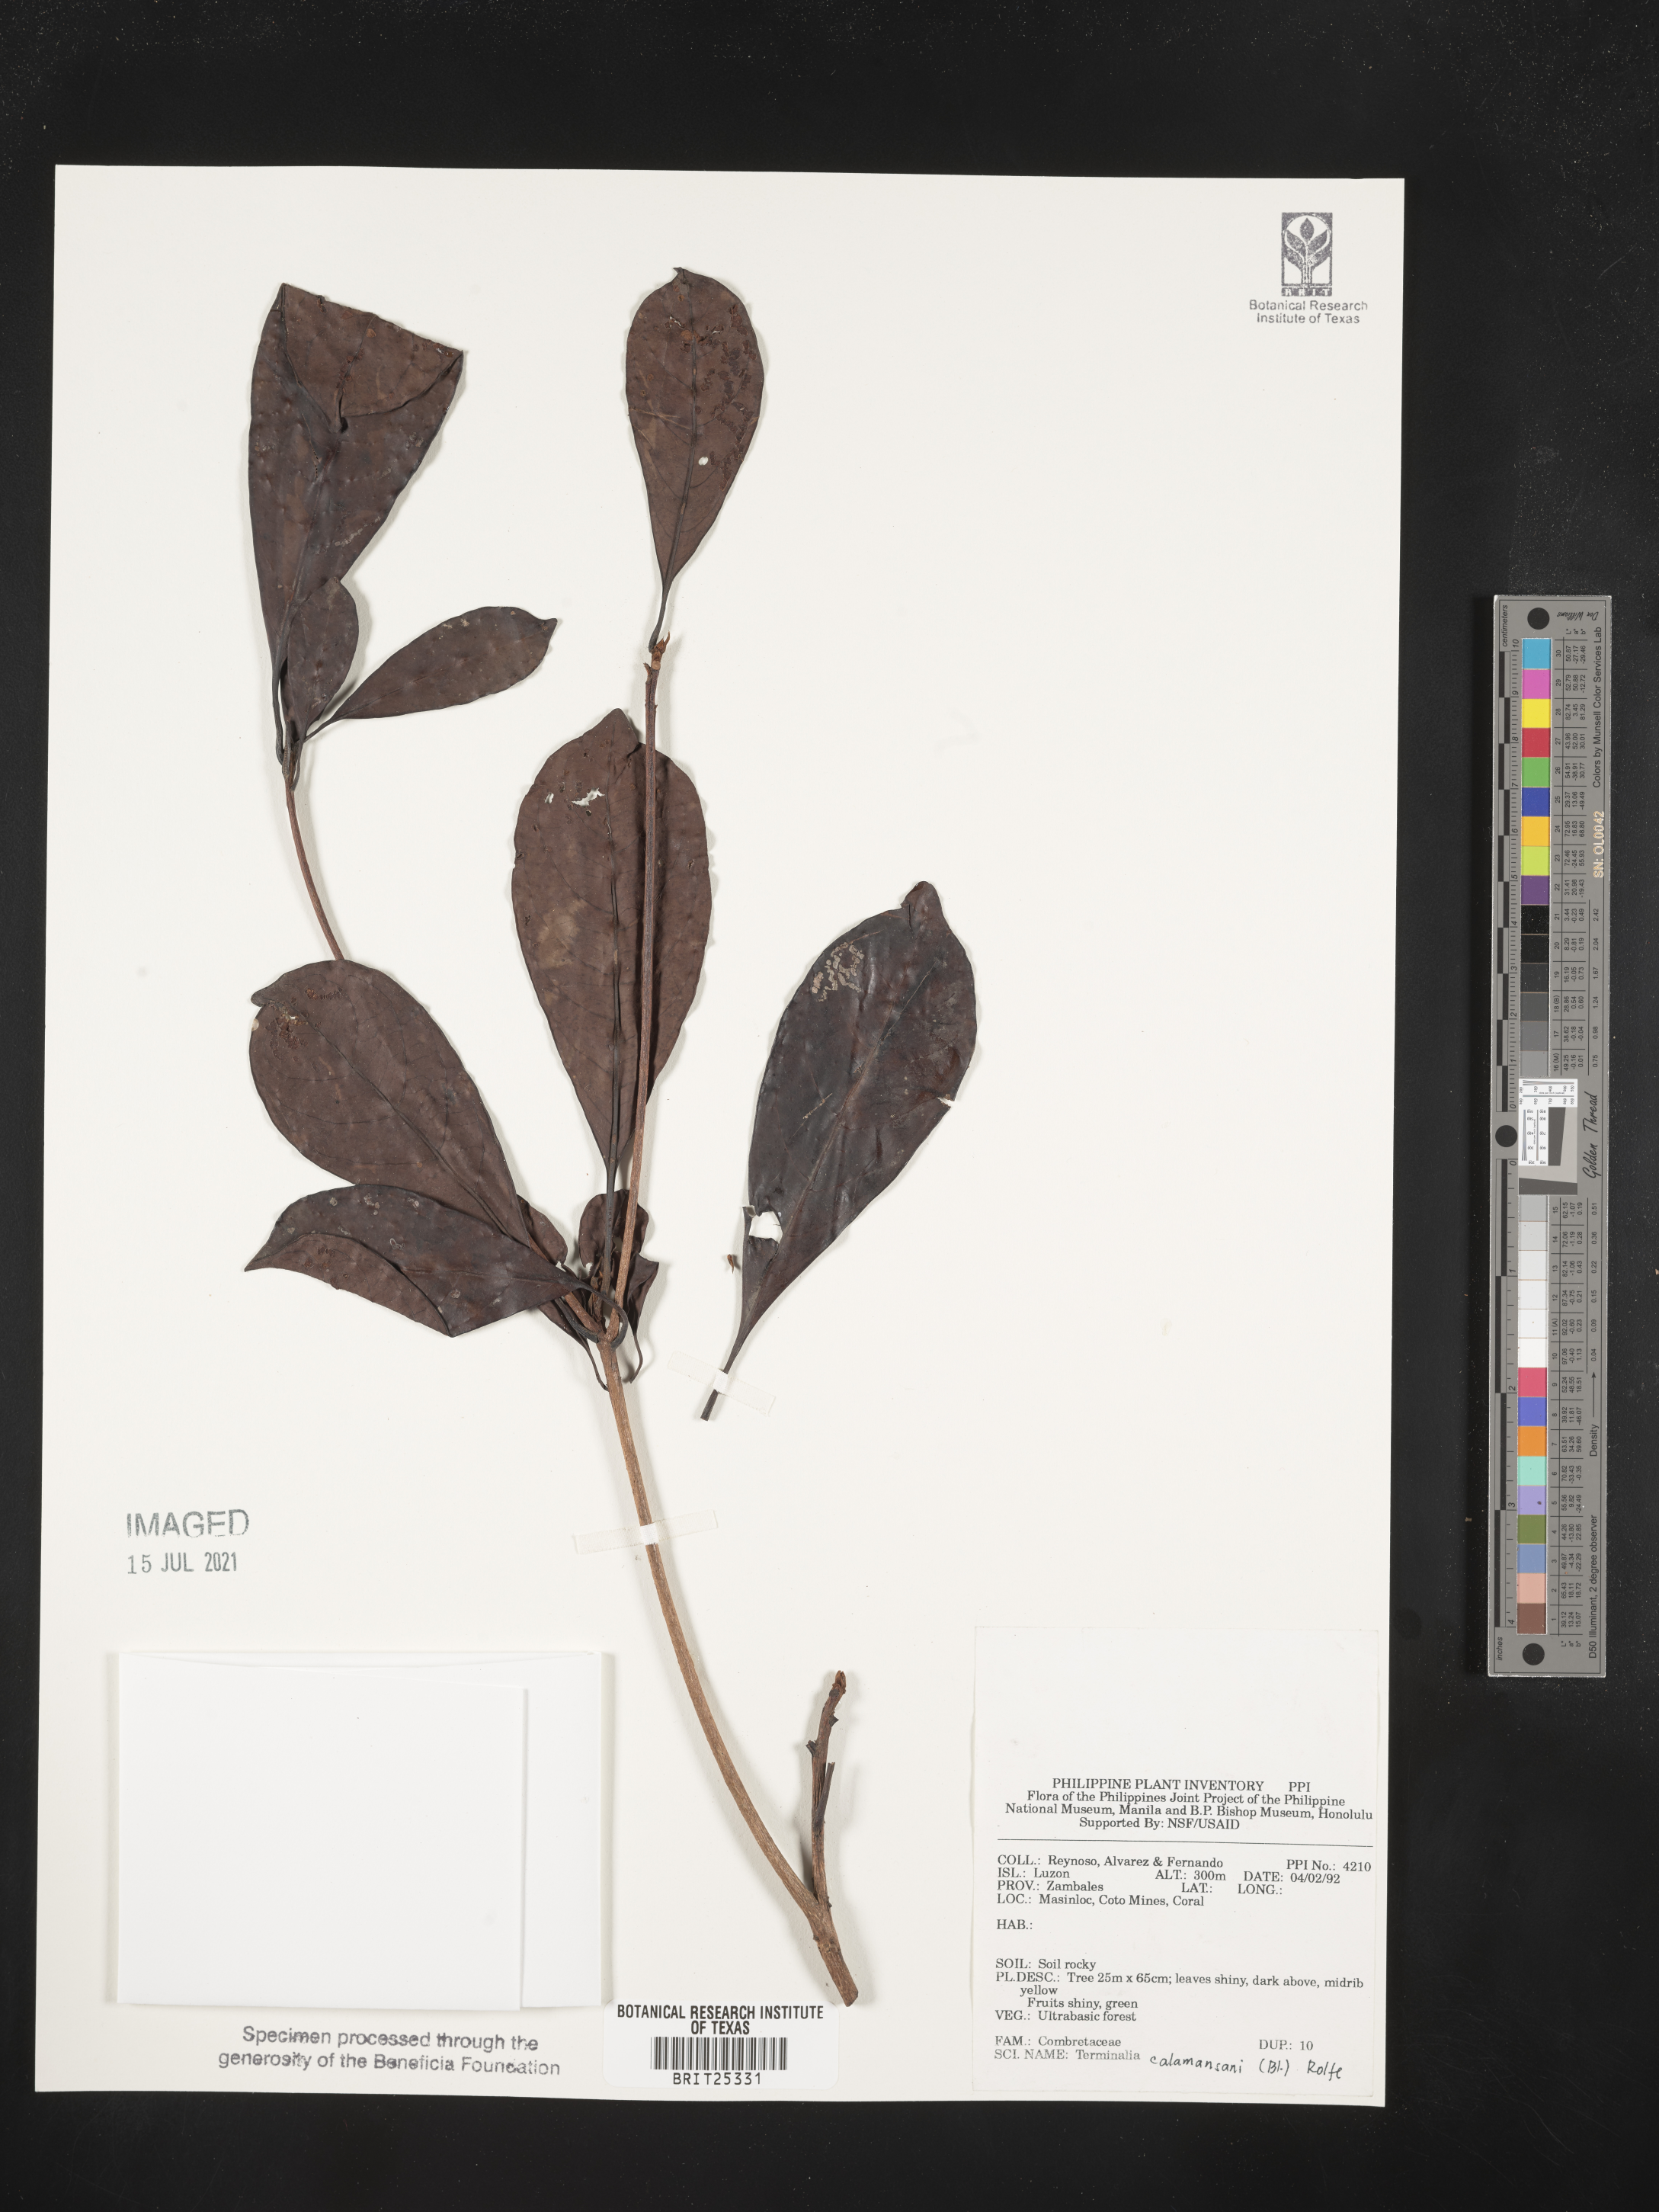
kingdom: Plantae
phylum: Tracheophyta
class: Magnoliopsida
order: Myrtales
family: Combretaceae
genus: Terminalia
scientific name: Terminalia calamansanai
